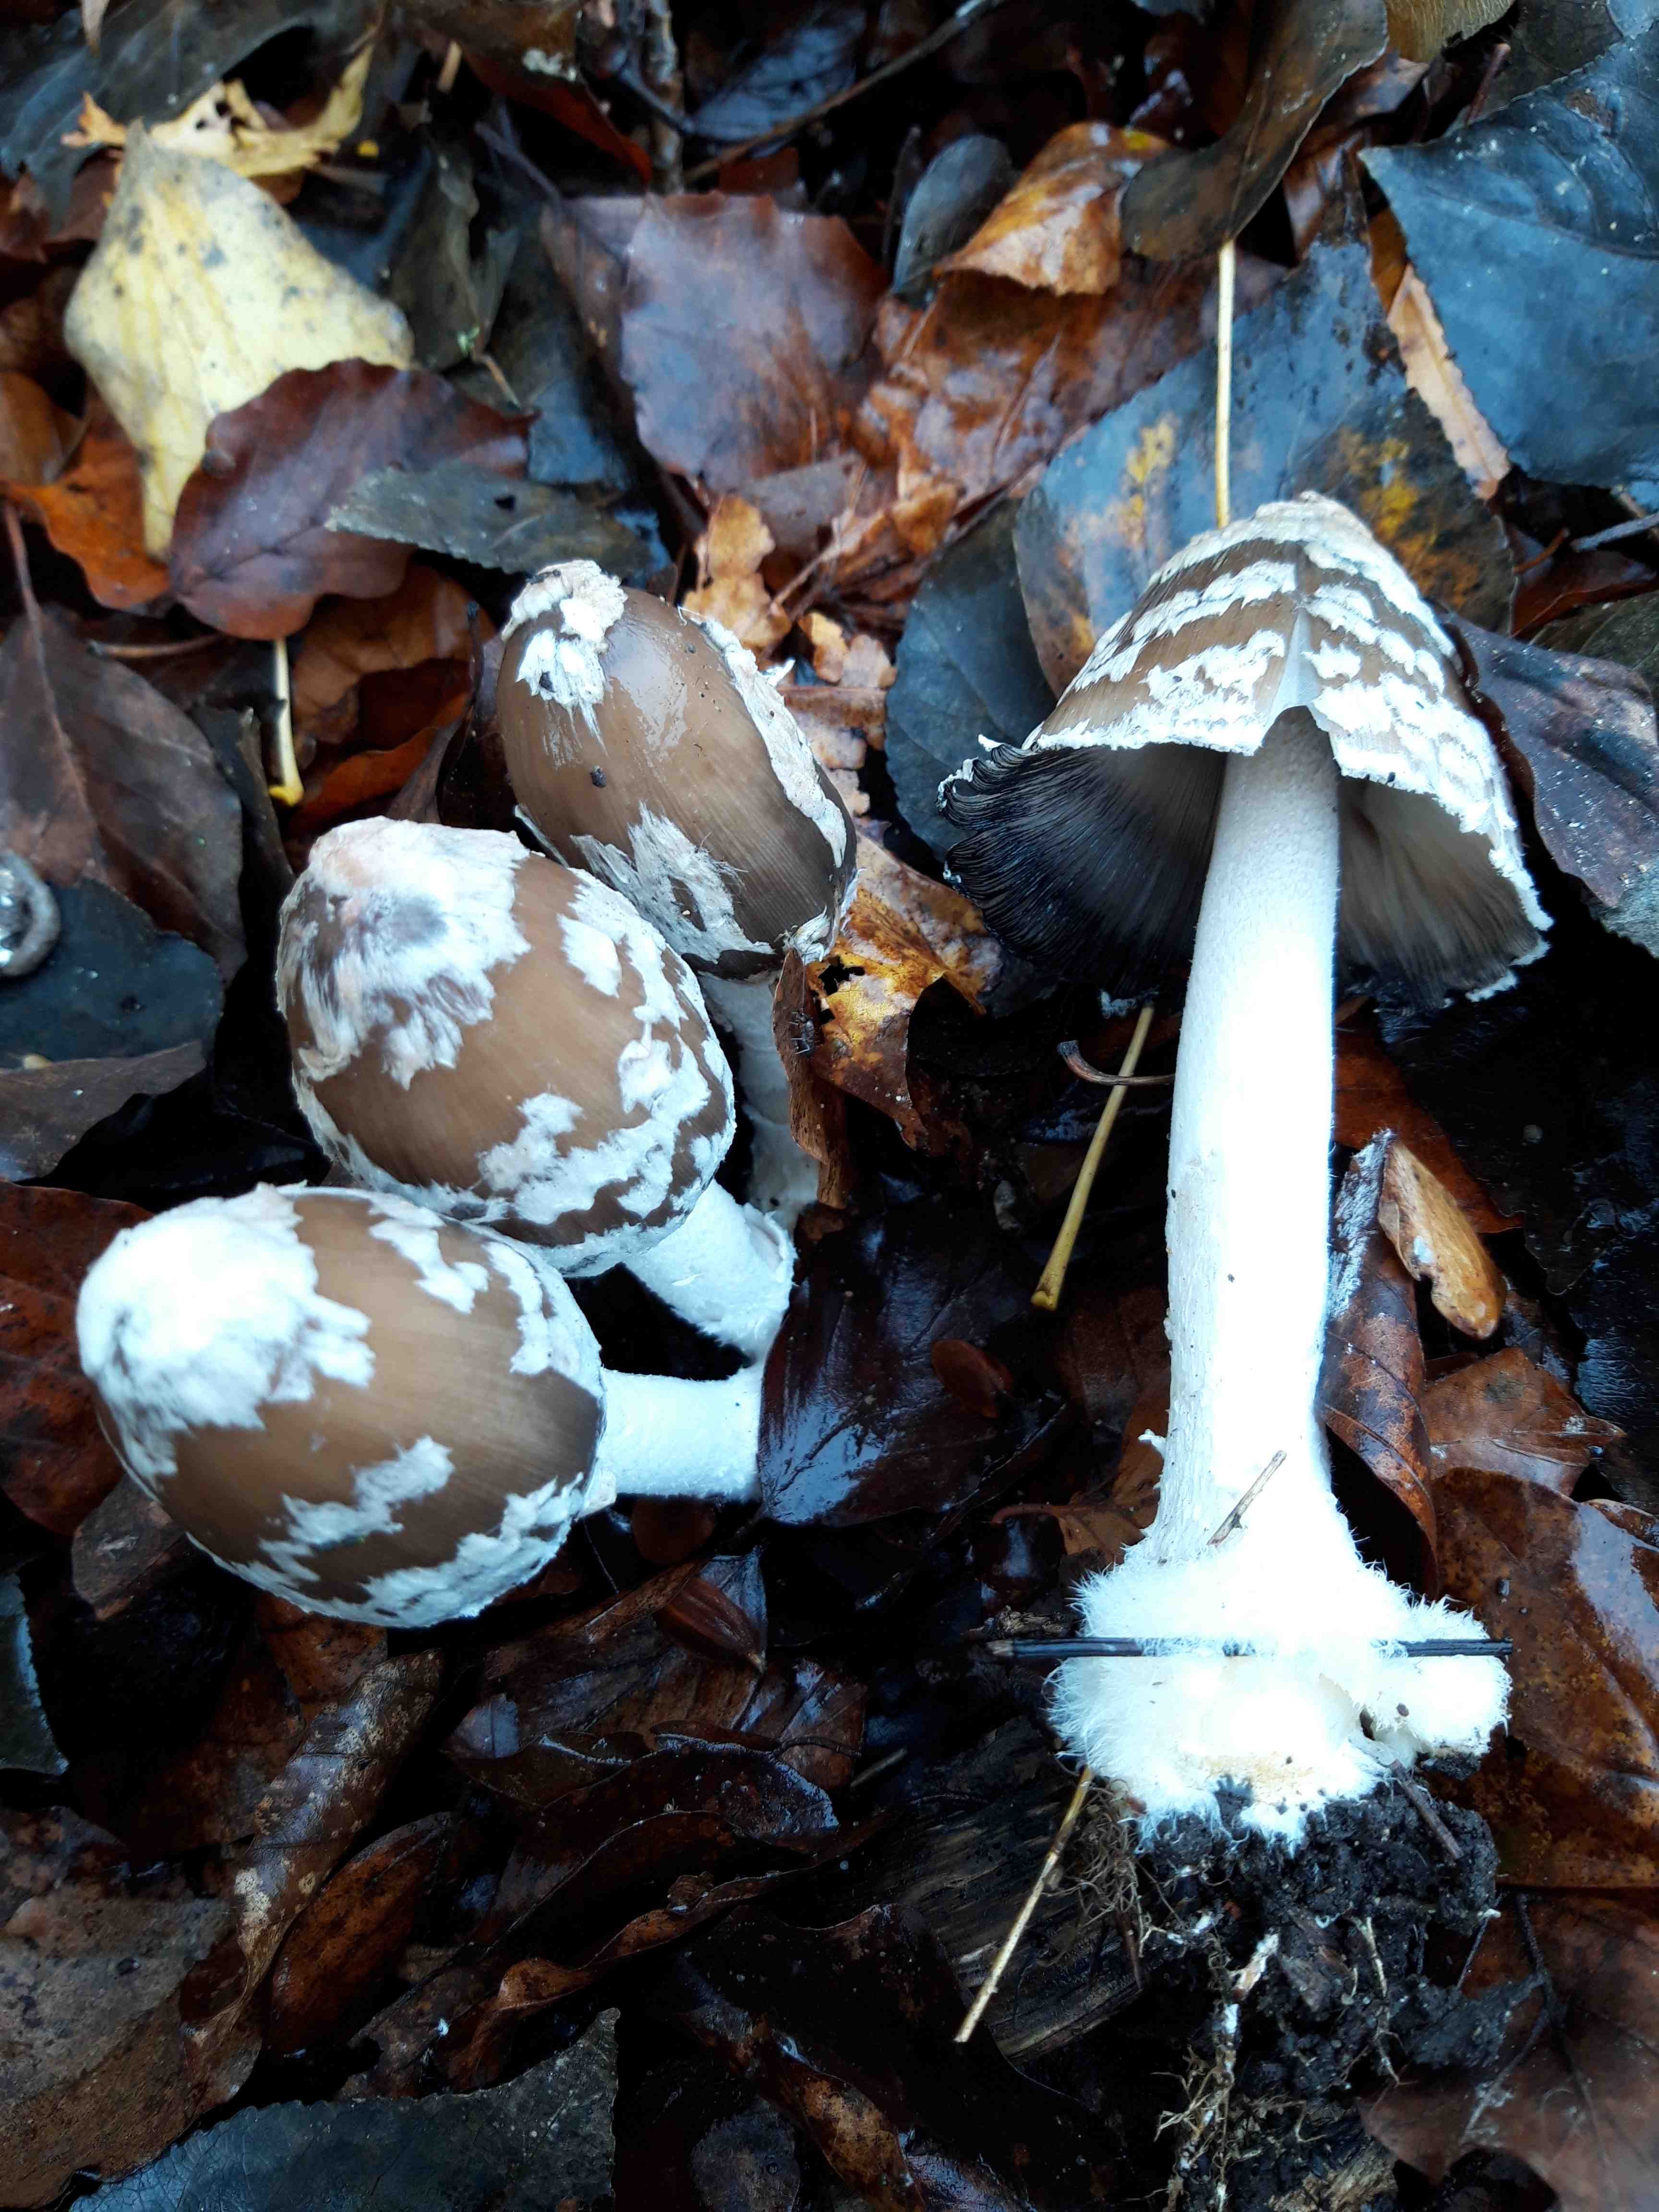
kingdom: Fungi
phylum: Basidiomycota
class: Agaricomycetes
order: Agaricales
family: Psathyrellaceae
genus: Coprinopsis
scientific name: Coprinopsis picacea
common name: skade-blækhat
